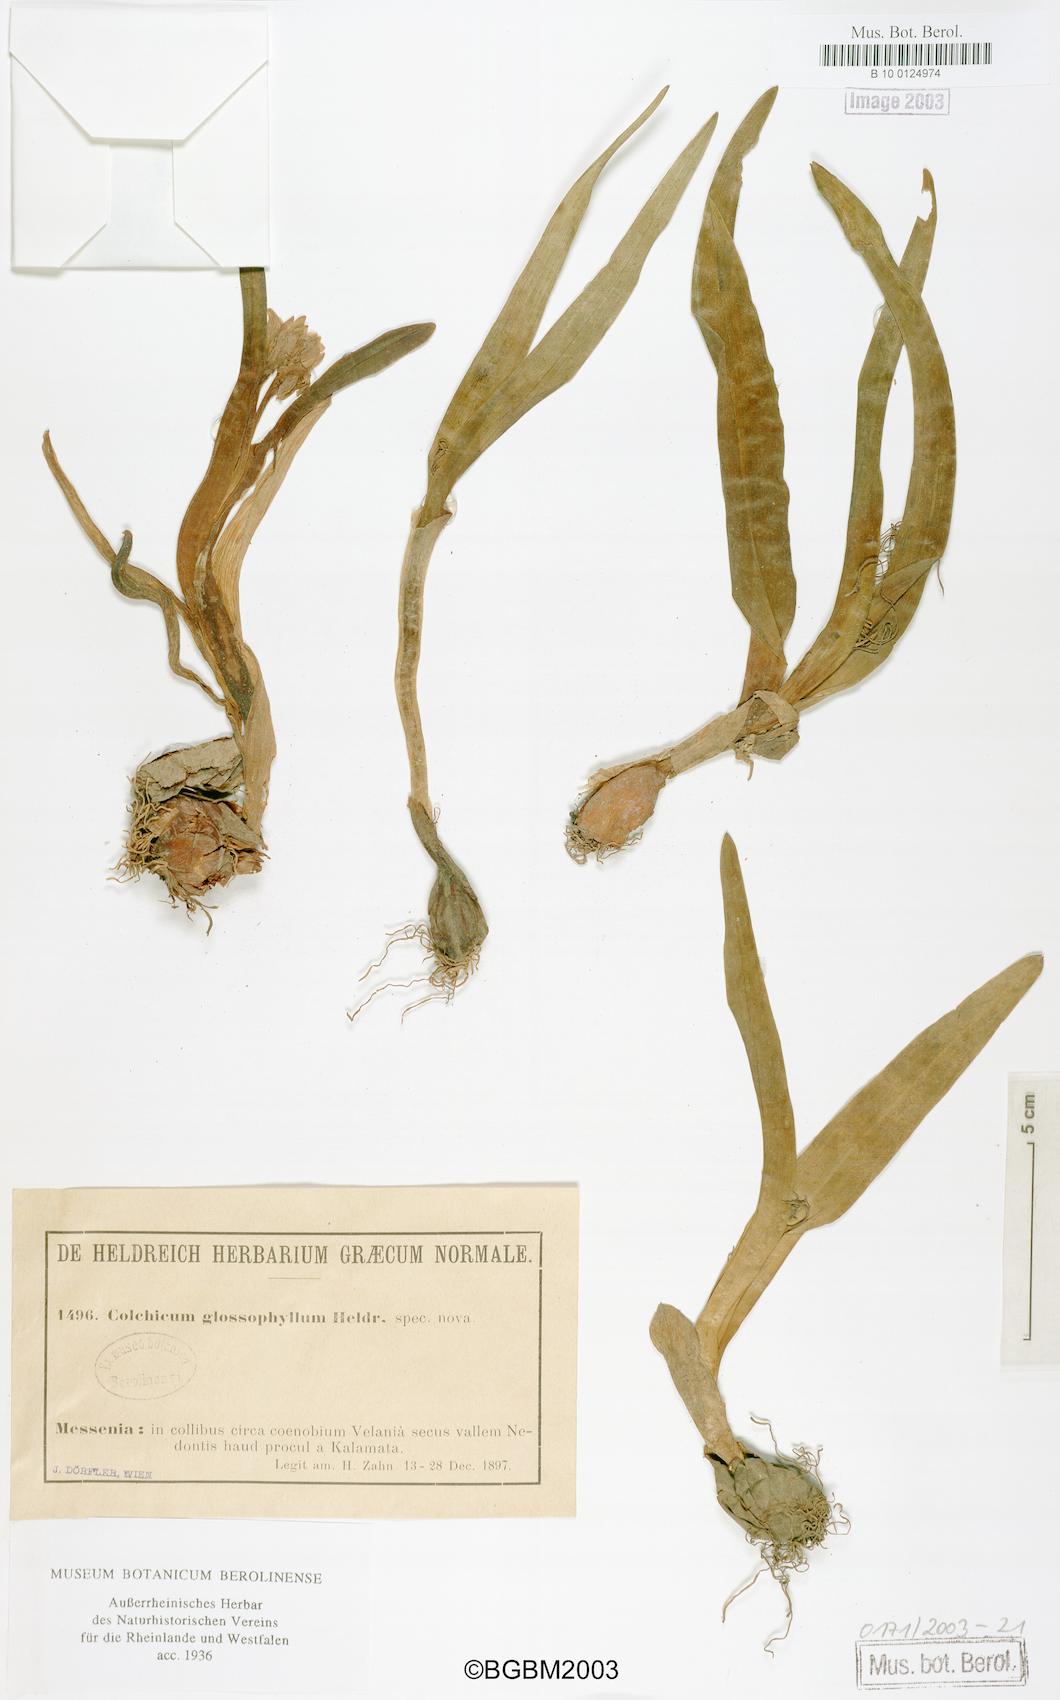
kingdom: Plantae
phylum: Tracheophyta
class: Liliopsida
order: Liliales
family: Colchicaceae
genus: Colchicum
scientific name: Colchicum cupanii
